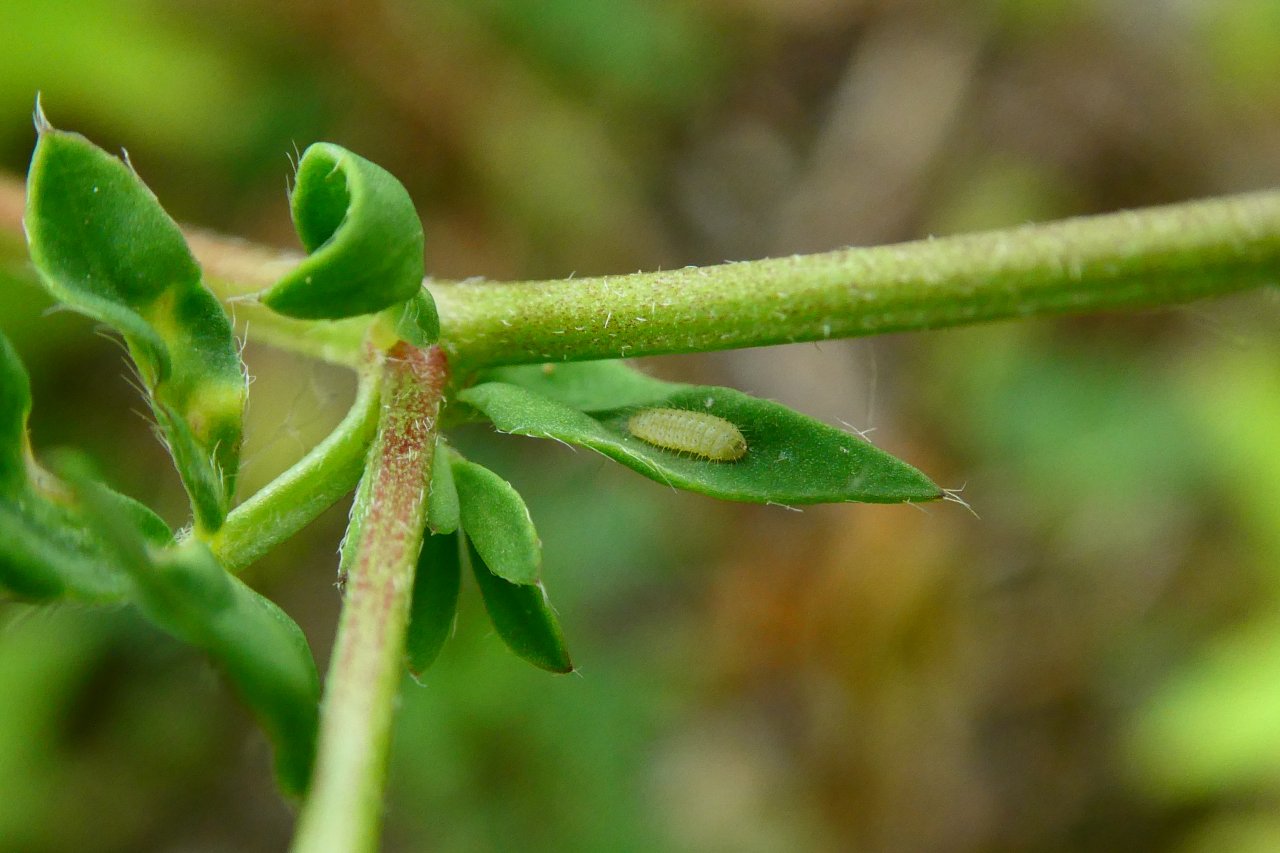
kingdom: Animalia
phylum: Arthropoda
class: Insecta
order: Lepidoptera
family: Lycaenidae
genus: Polyommatus
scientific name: Polyommatus icarus
